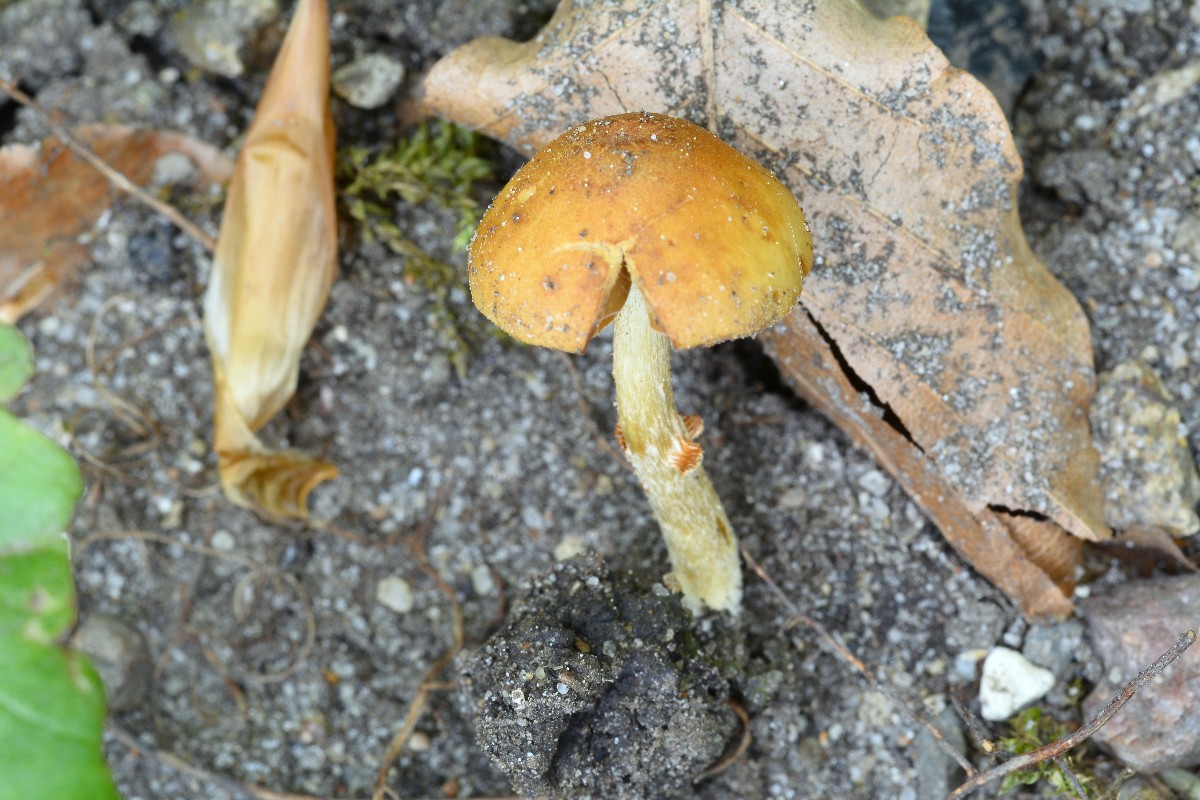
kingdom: Fungi
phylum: Basidiomycota
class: Agaricomycetes
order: Agaricales
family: Bolbitiaceae
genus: Conocybe
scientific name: Conocybe aporos
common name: tidlig dansehat
